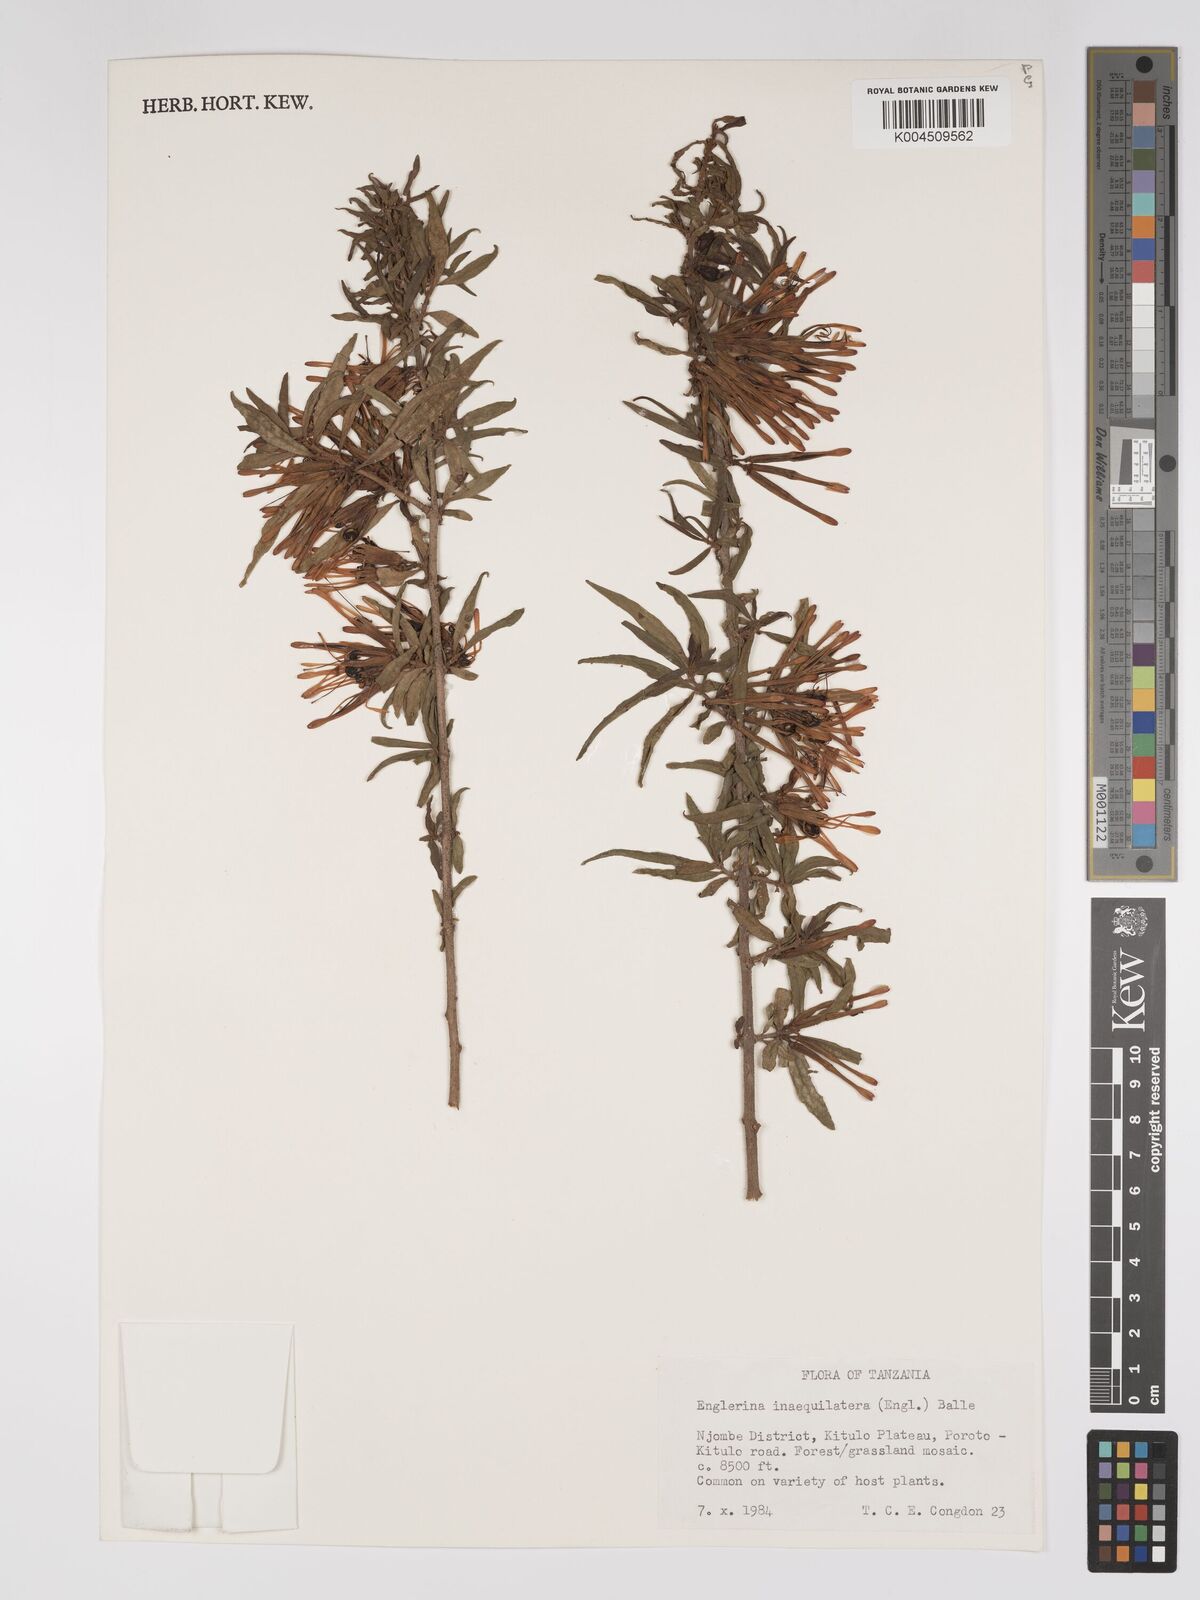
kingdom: Plantae
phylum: Tracheophyta
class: Magnoliopsida
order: Santalales
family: Loranthaceae
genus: Englerina
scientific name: Englerina inaequilatera
